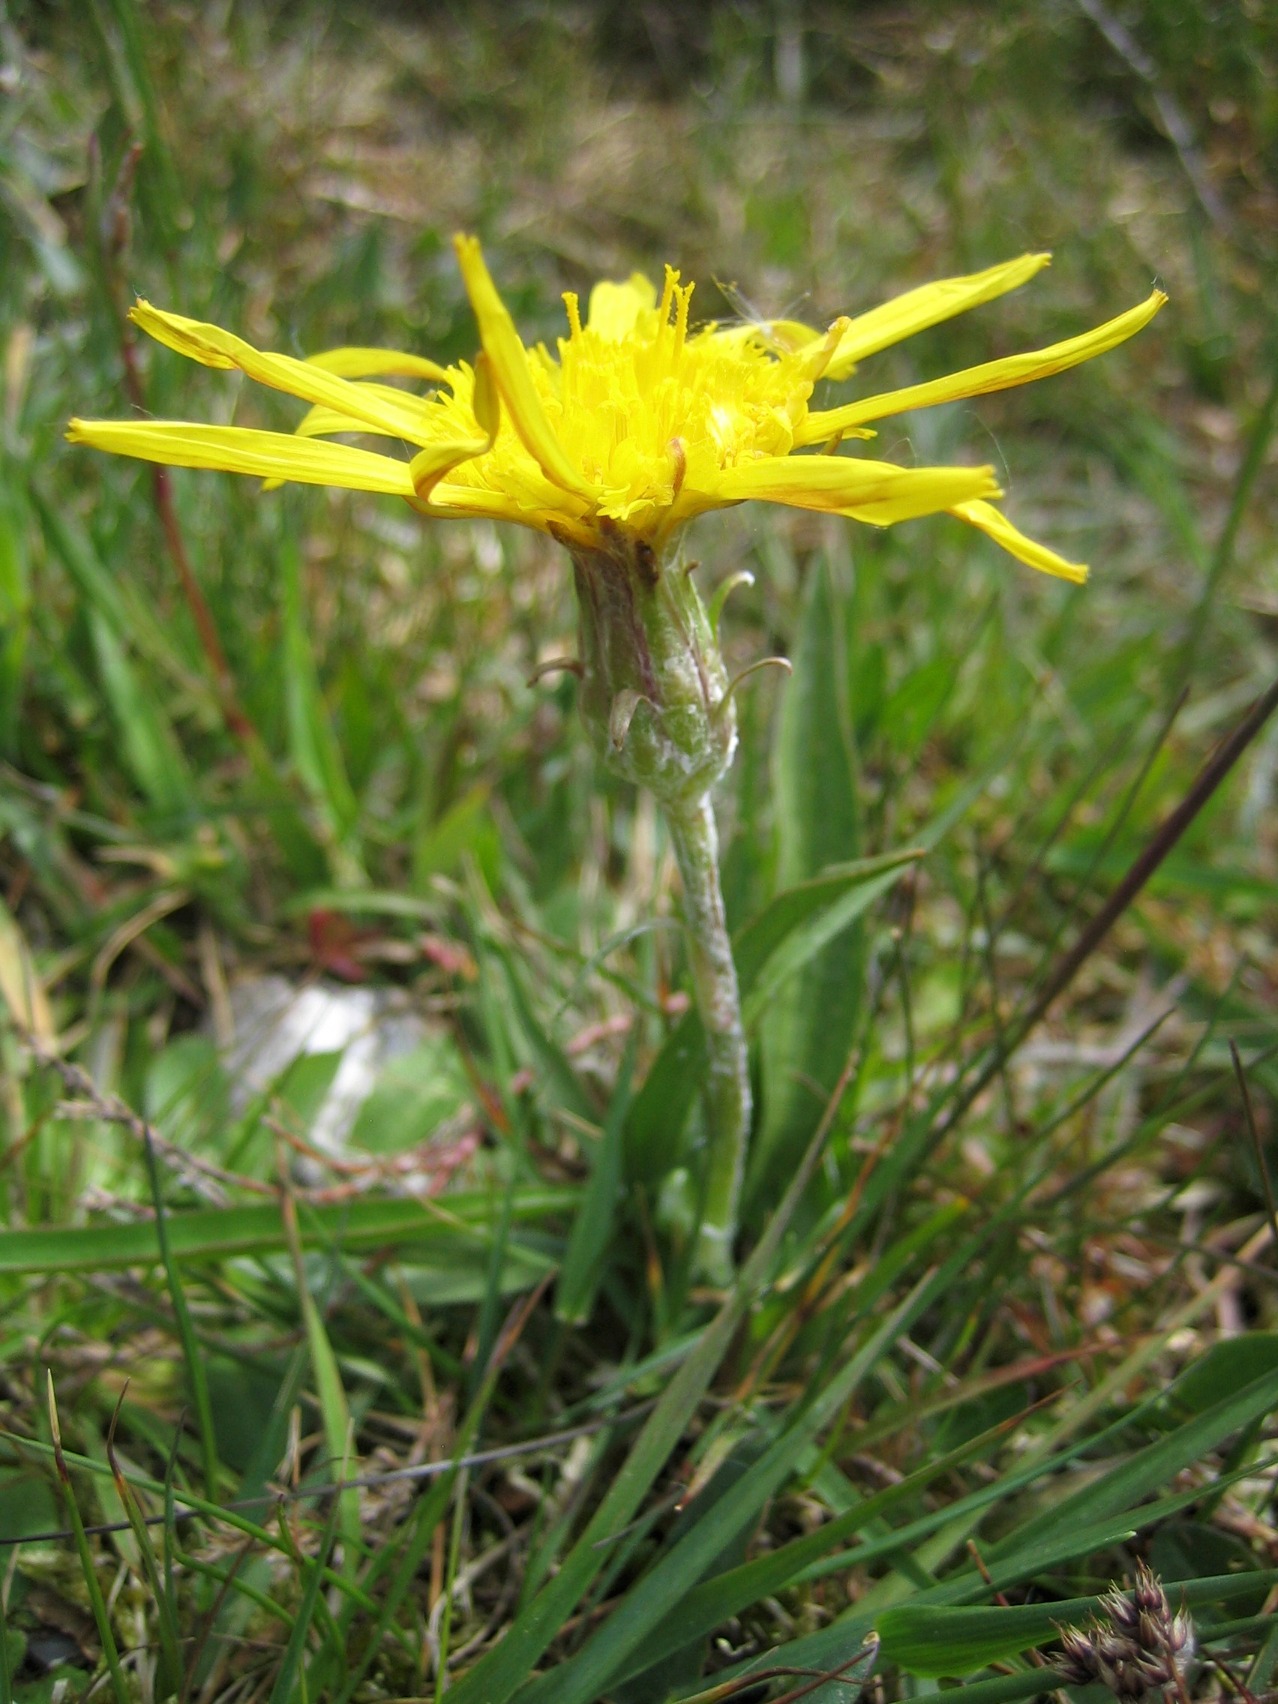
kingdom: Plantae
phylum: Tracheophyta
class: Magnoliopsida
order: Asterales
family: Asteraceae
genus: Scorzonera
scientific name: Scorzonera humilis
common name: Lav skorsoner
